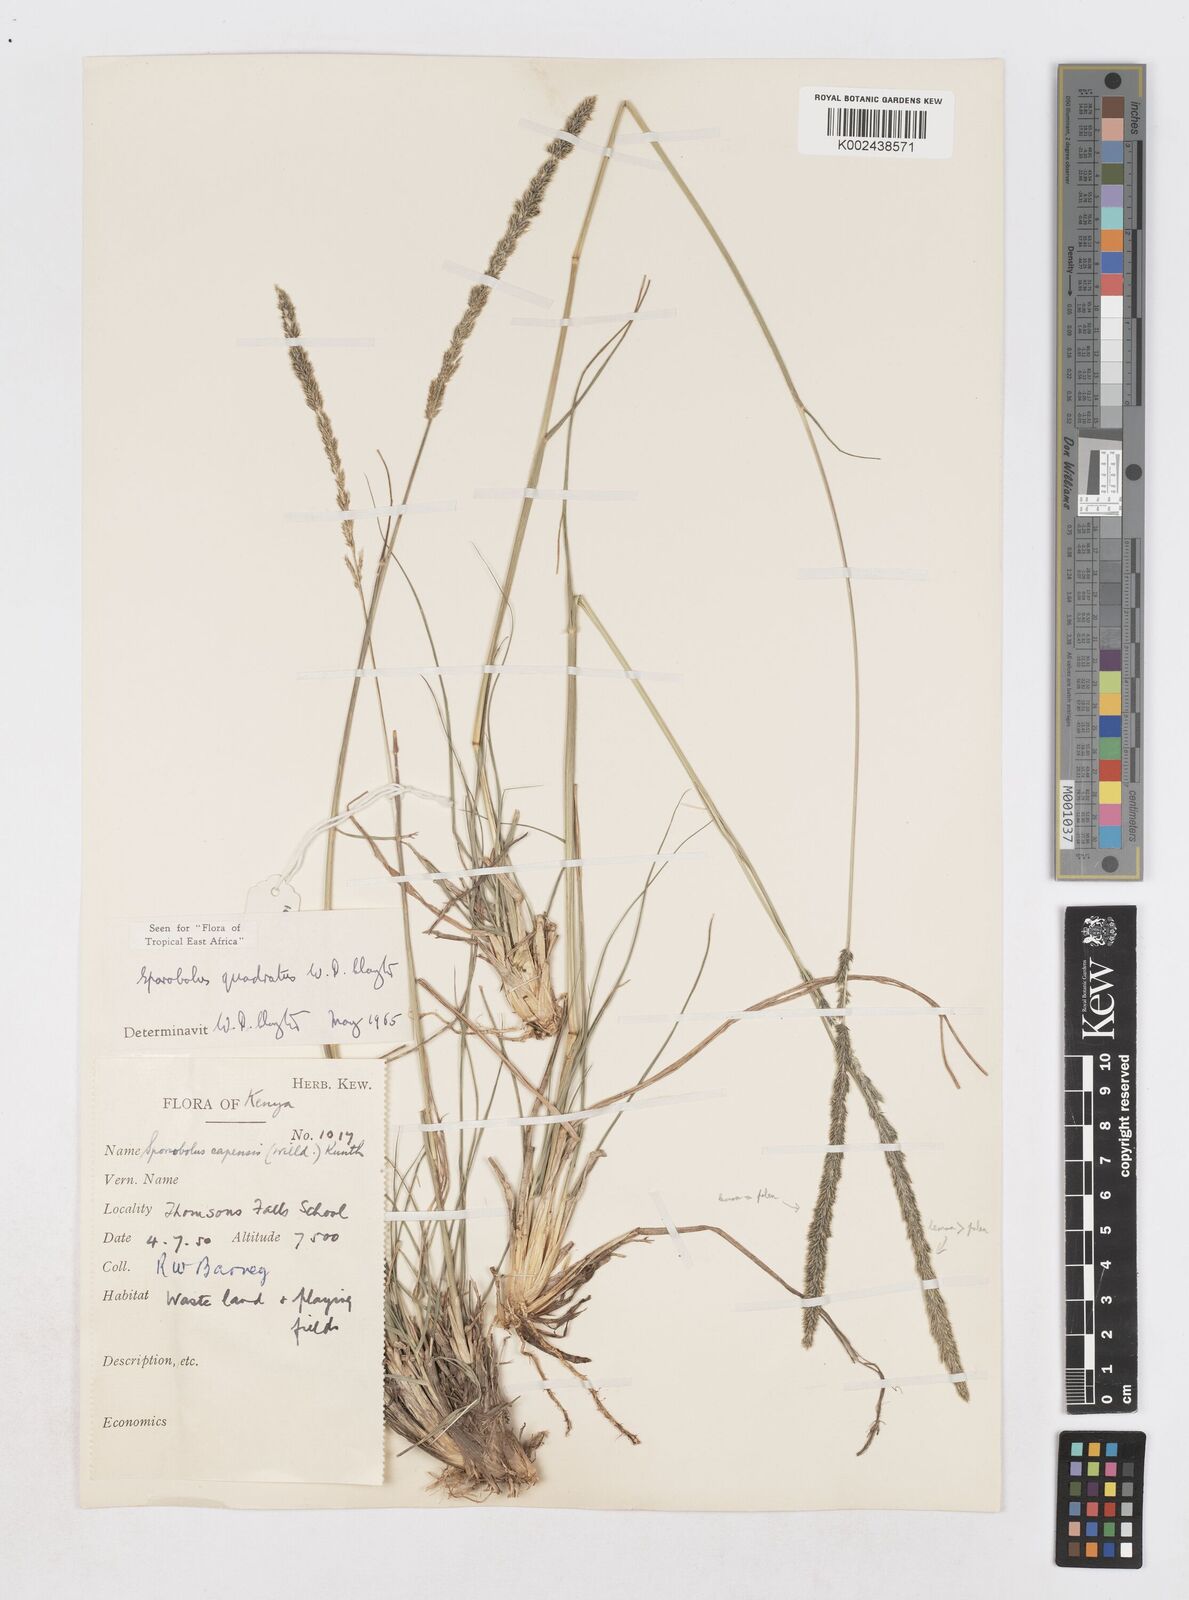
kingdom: Plantae
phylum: Tracheophyta
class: Liliopsida
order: Poales
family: Poaceae
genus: Sporobolus
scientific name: Sporobolus quadratus
